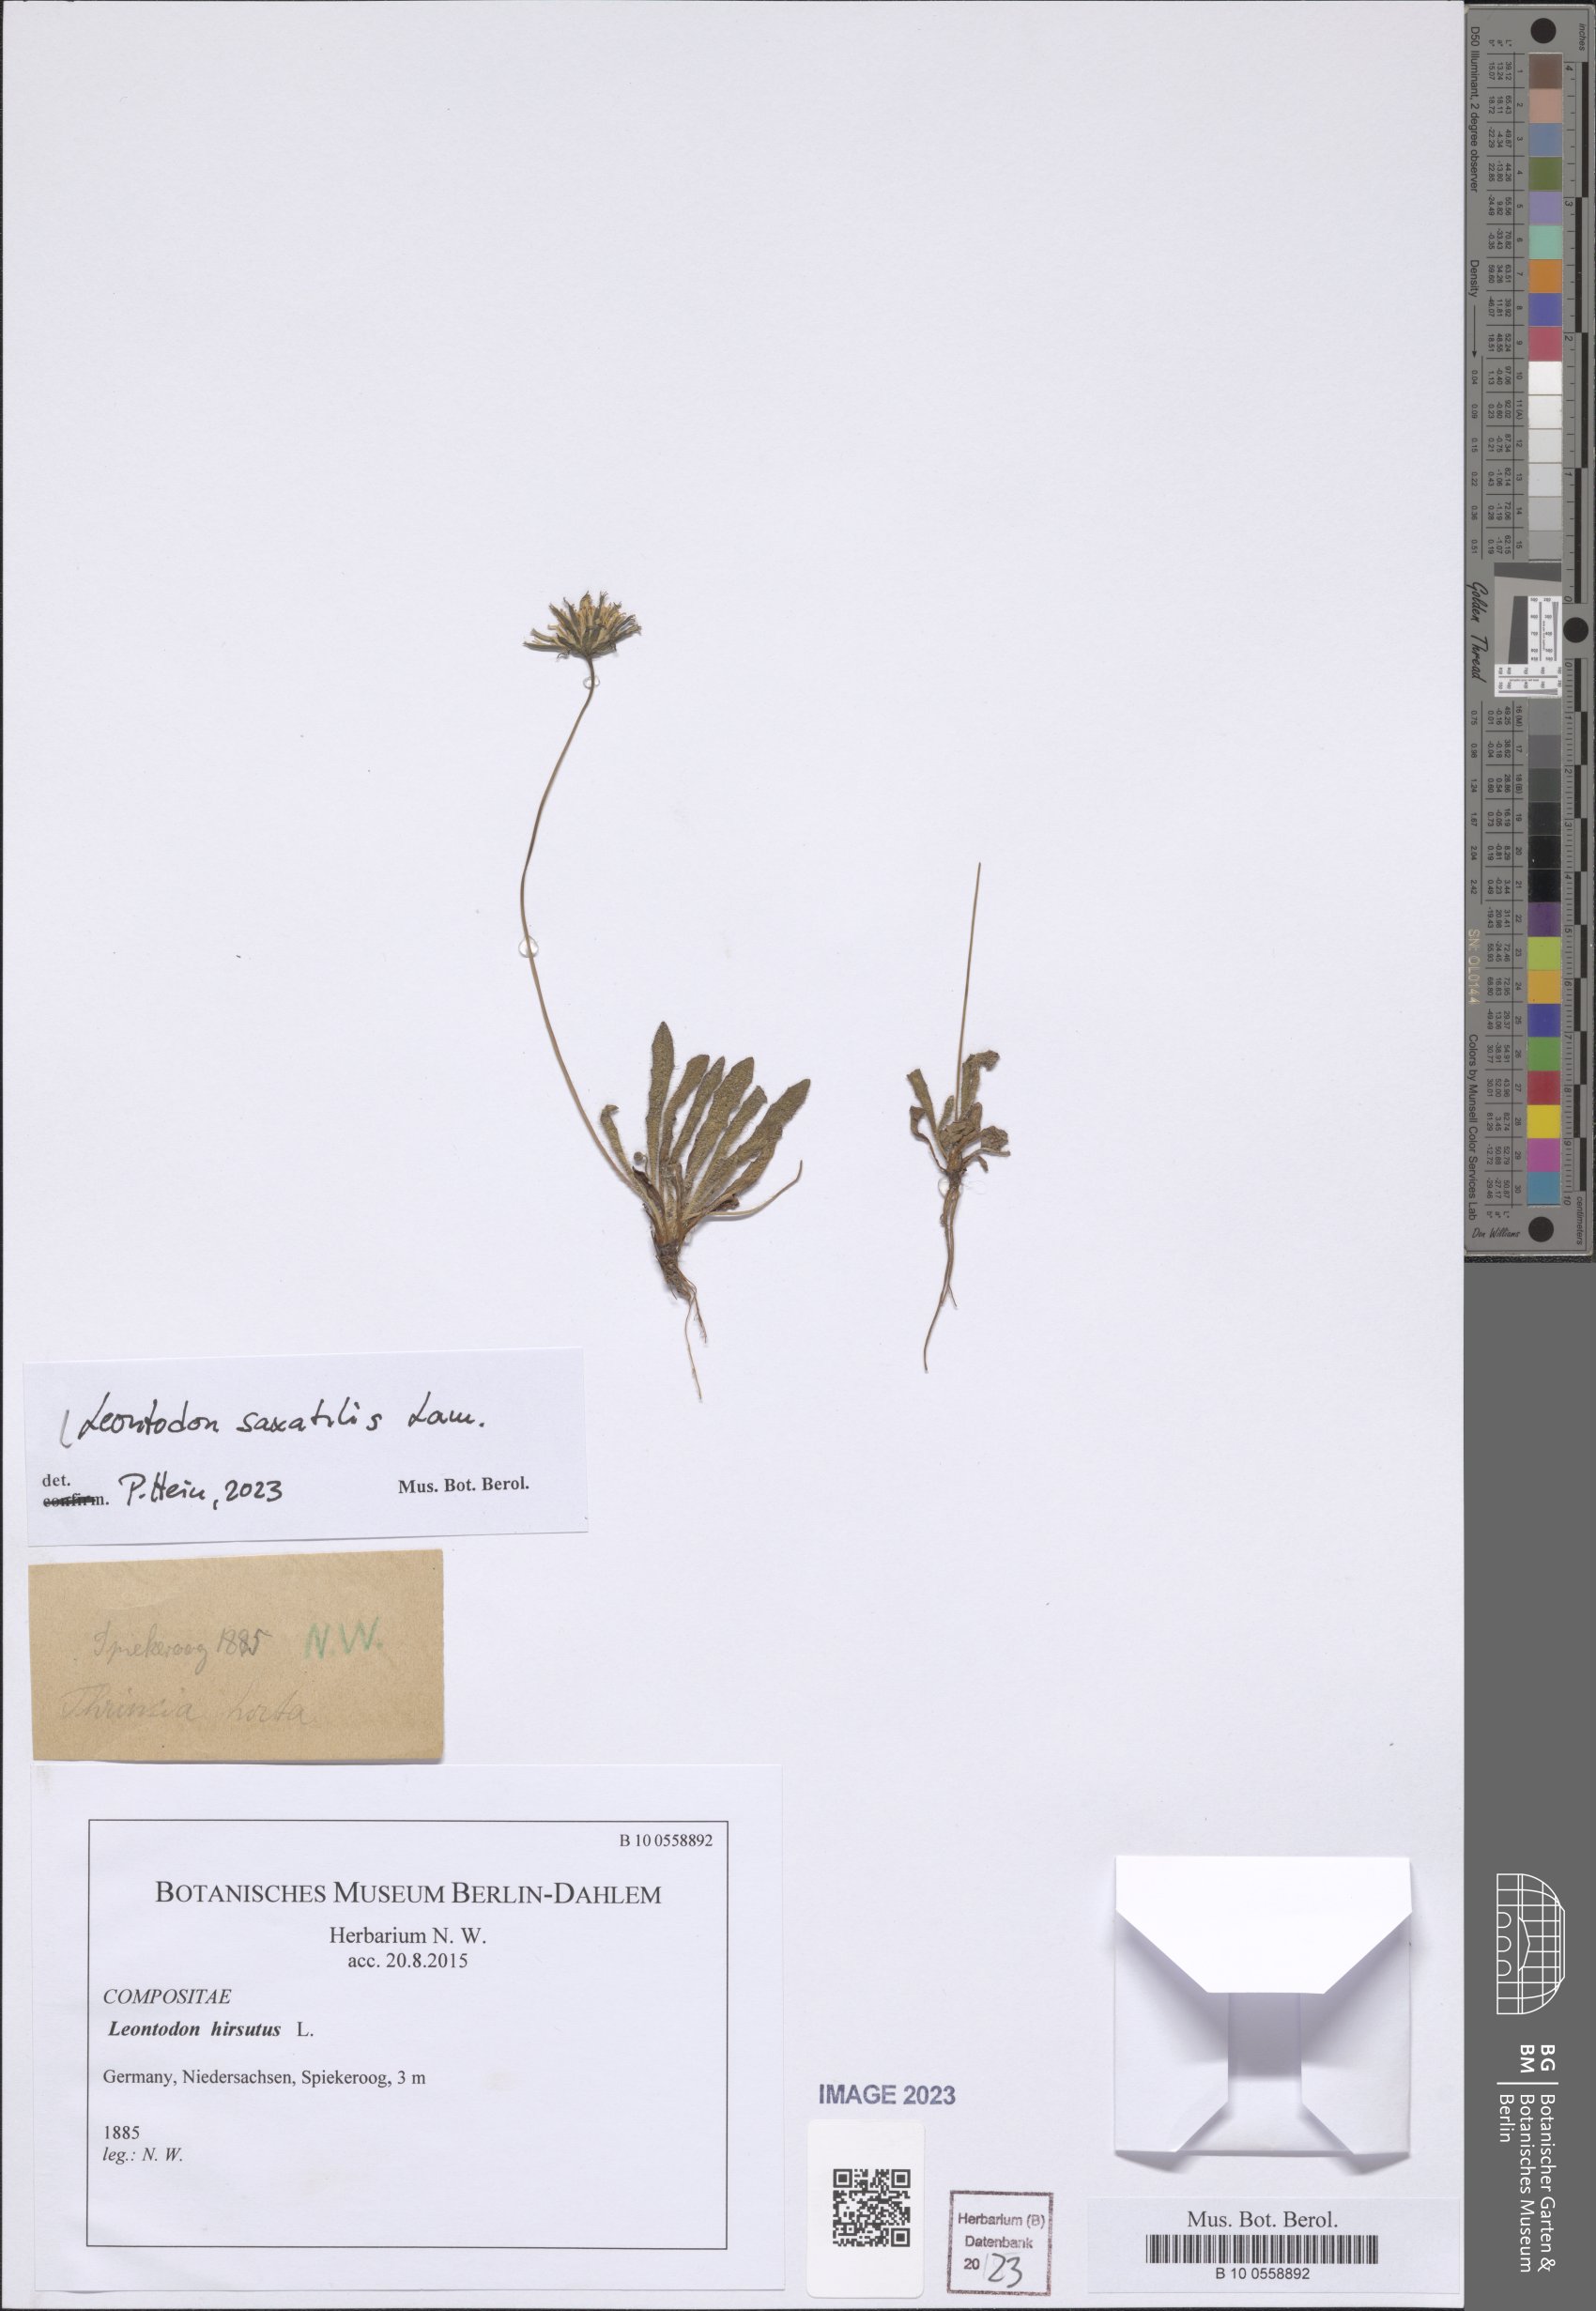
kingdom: Plantae
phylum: Tracheophyta
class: Magnoliopsida
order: Asterales
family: Asteraceae
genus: Thrincia
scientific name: Thrincia saxatilis
